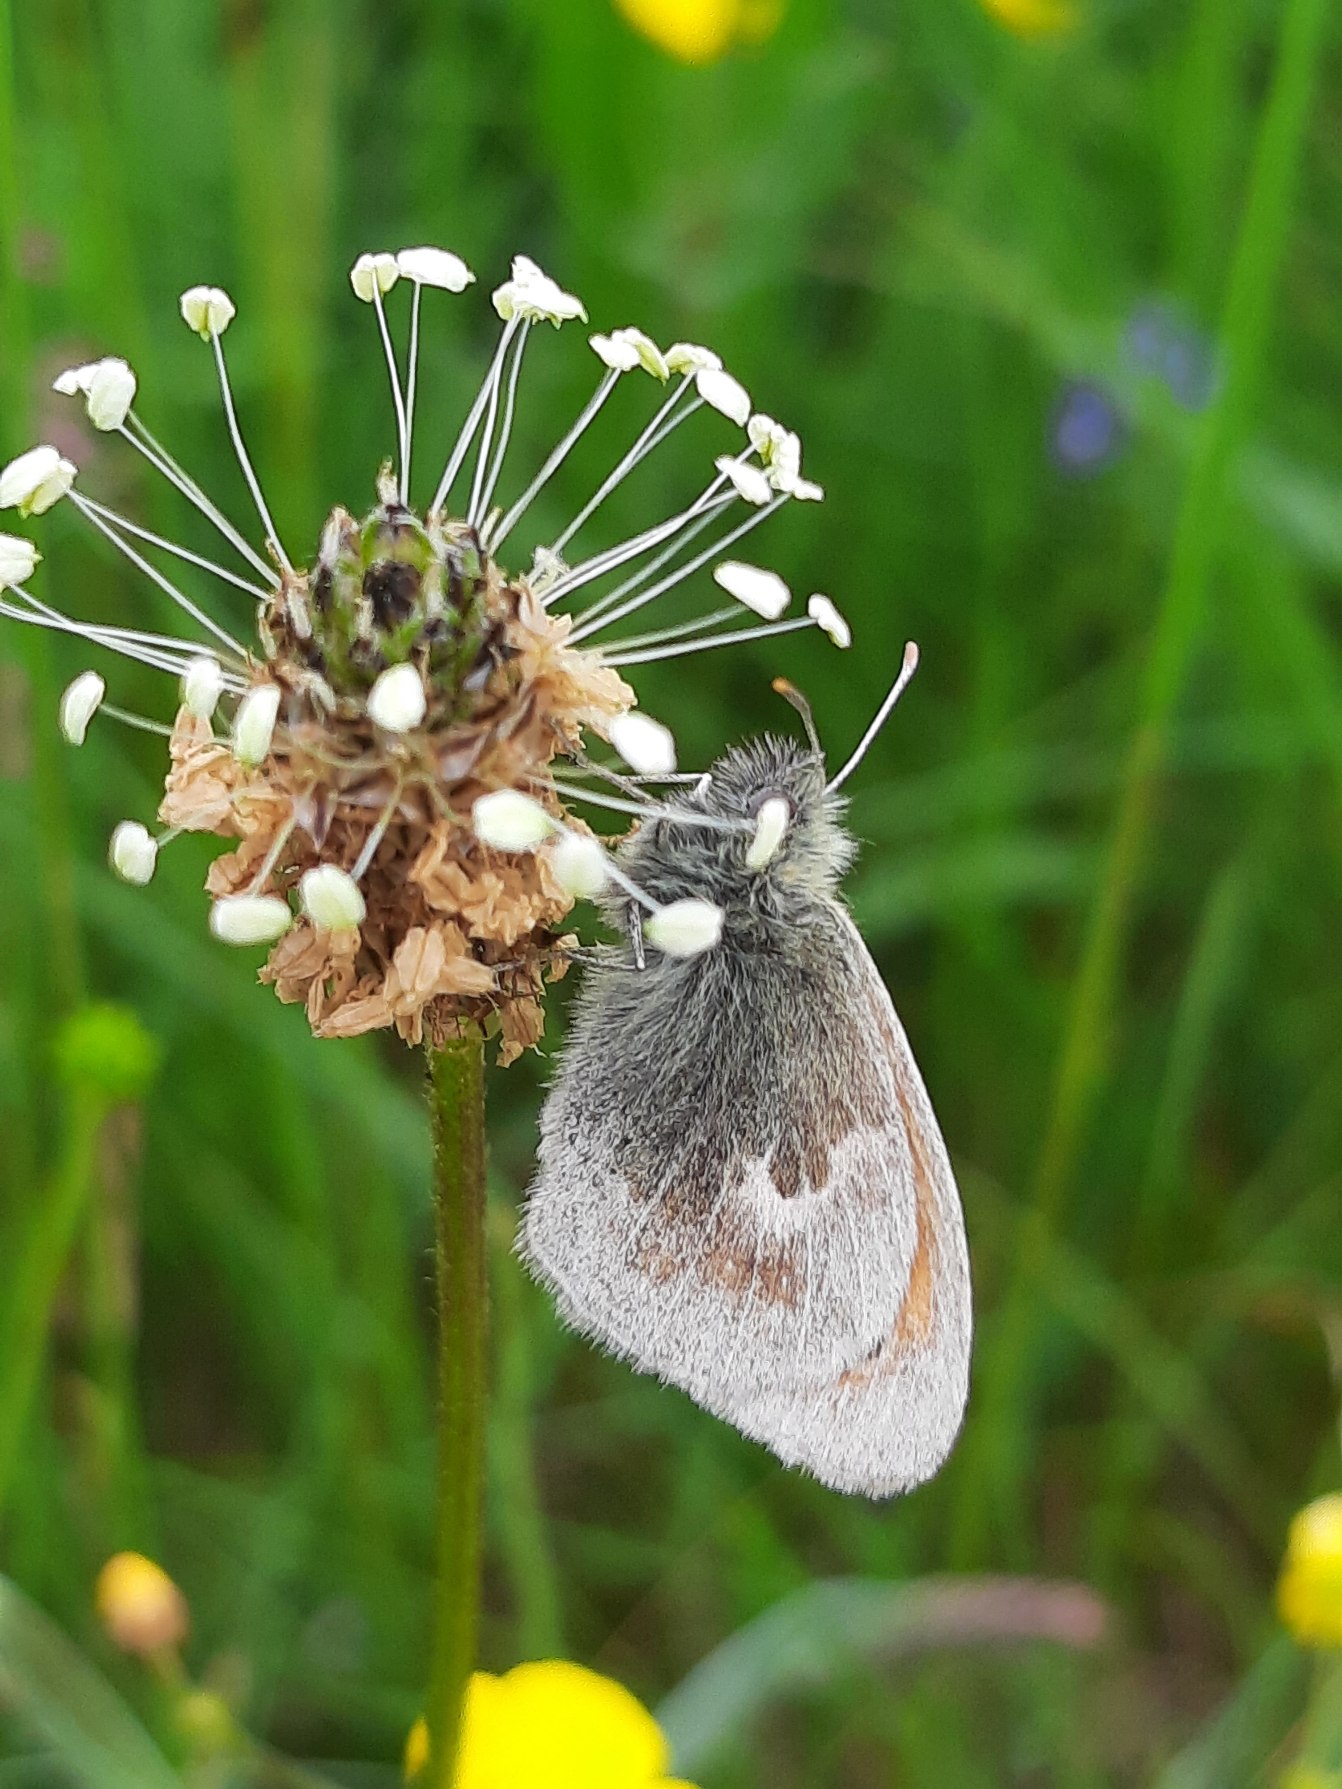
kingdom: Animalia
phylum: Arthropoda
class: Insecta
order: Lepidoptera
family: Nymphalidae
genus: Coenonympha
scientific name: Coenonympha pamphilus
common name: Okkergul randøje
